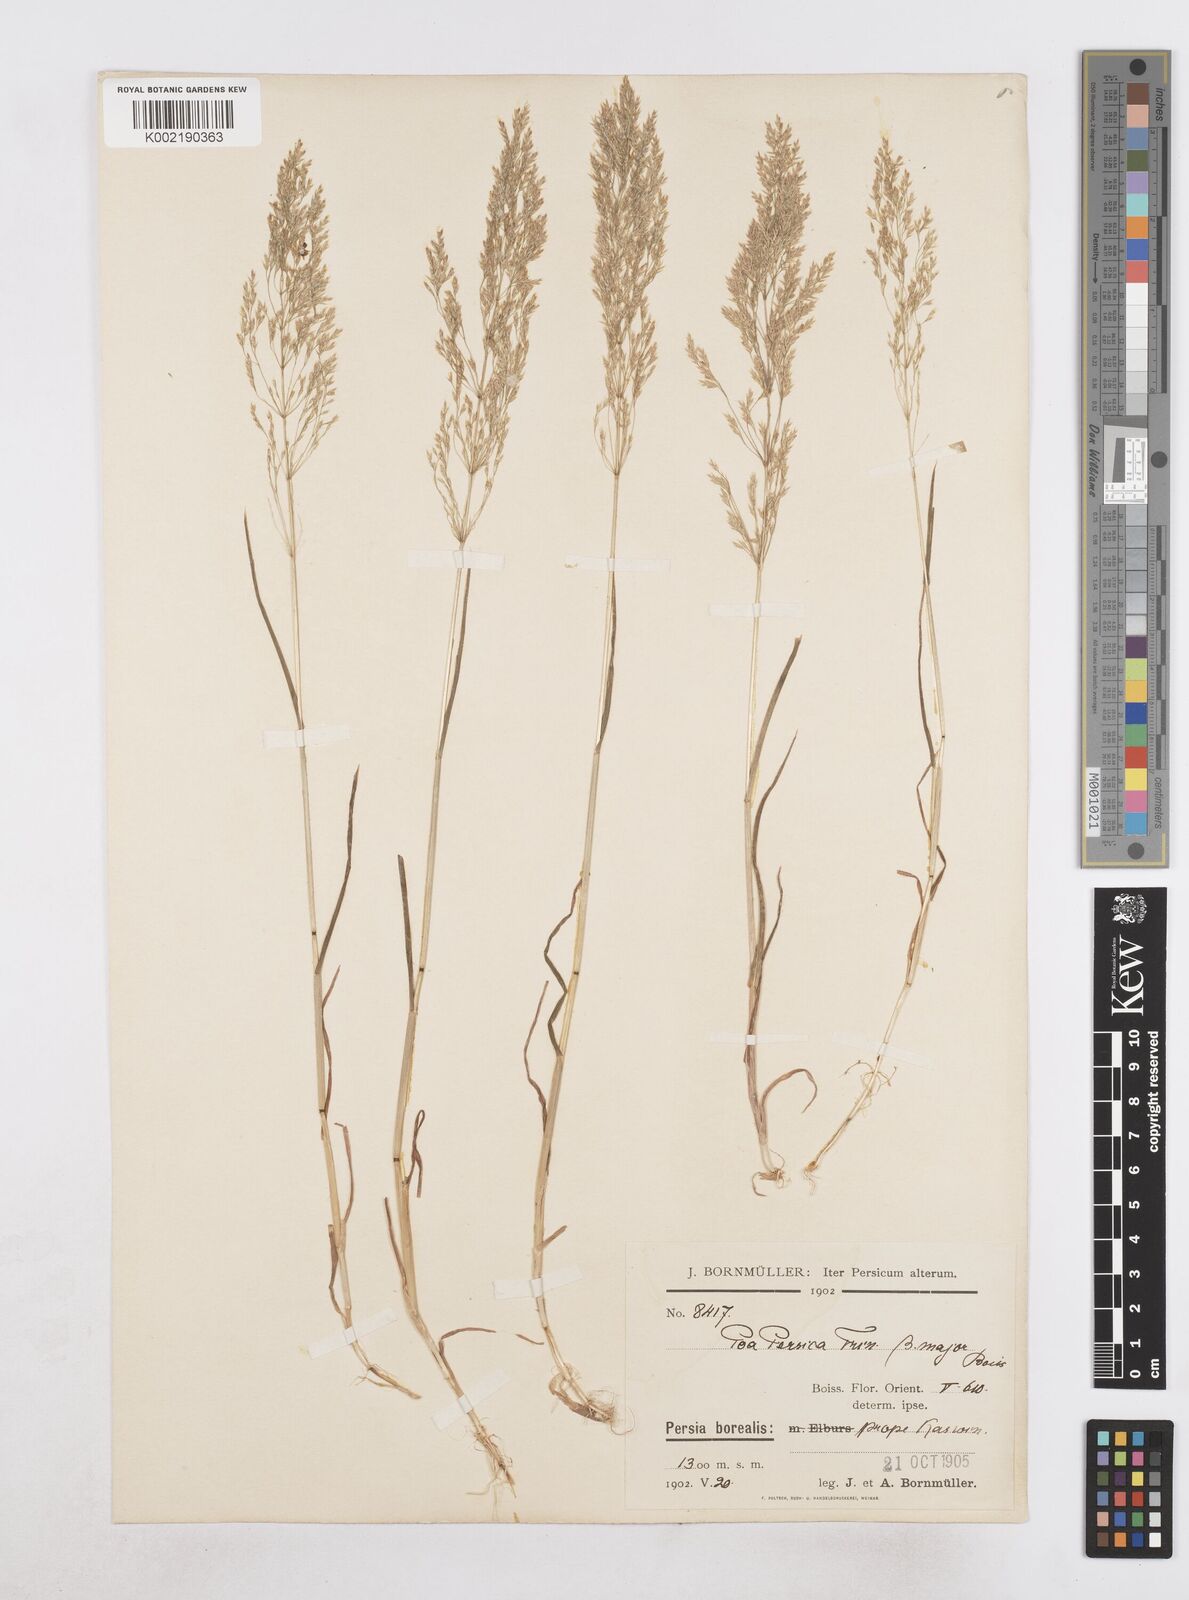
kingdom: Plantae
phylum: Tracheophyta
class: Liliopsida
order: Poales
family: Poaceae
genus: Poa
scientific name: Poa persica
